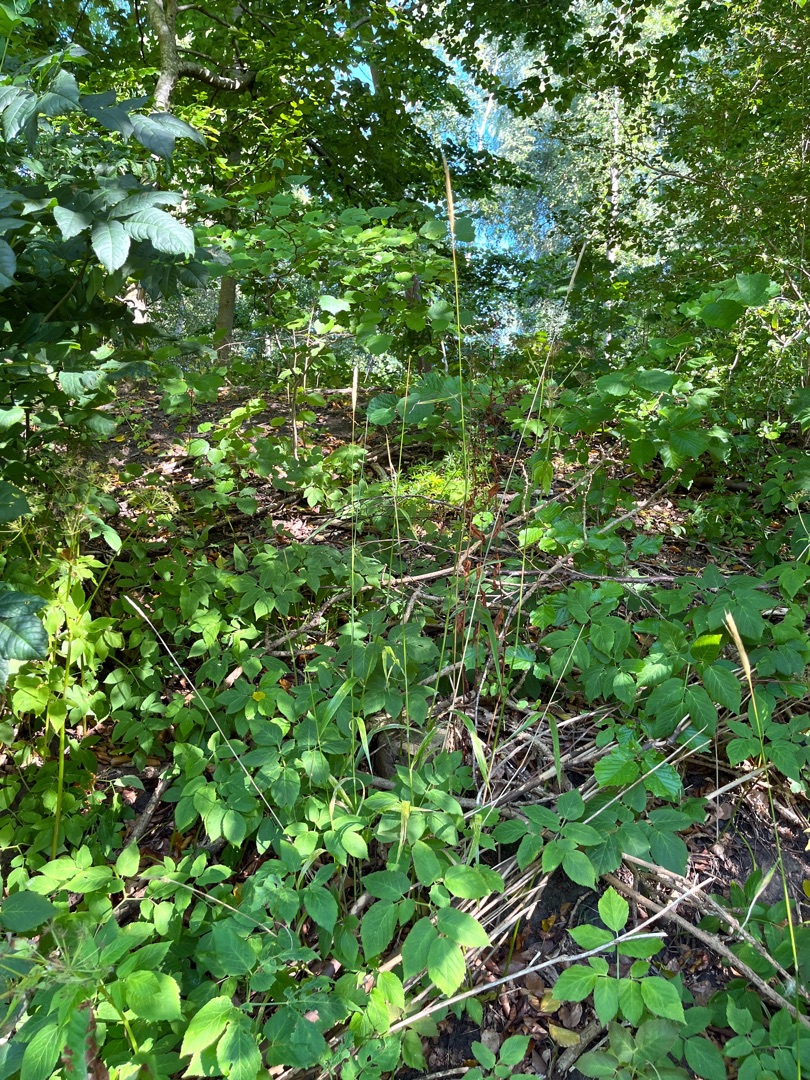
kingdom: Plantae
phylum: Tracheophyta
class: Liliopsida
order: Poales
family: Poaceae
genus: Hordelymus
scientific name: Hordelymus europaeus
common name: Skovbyg
